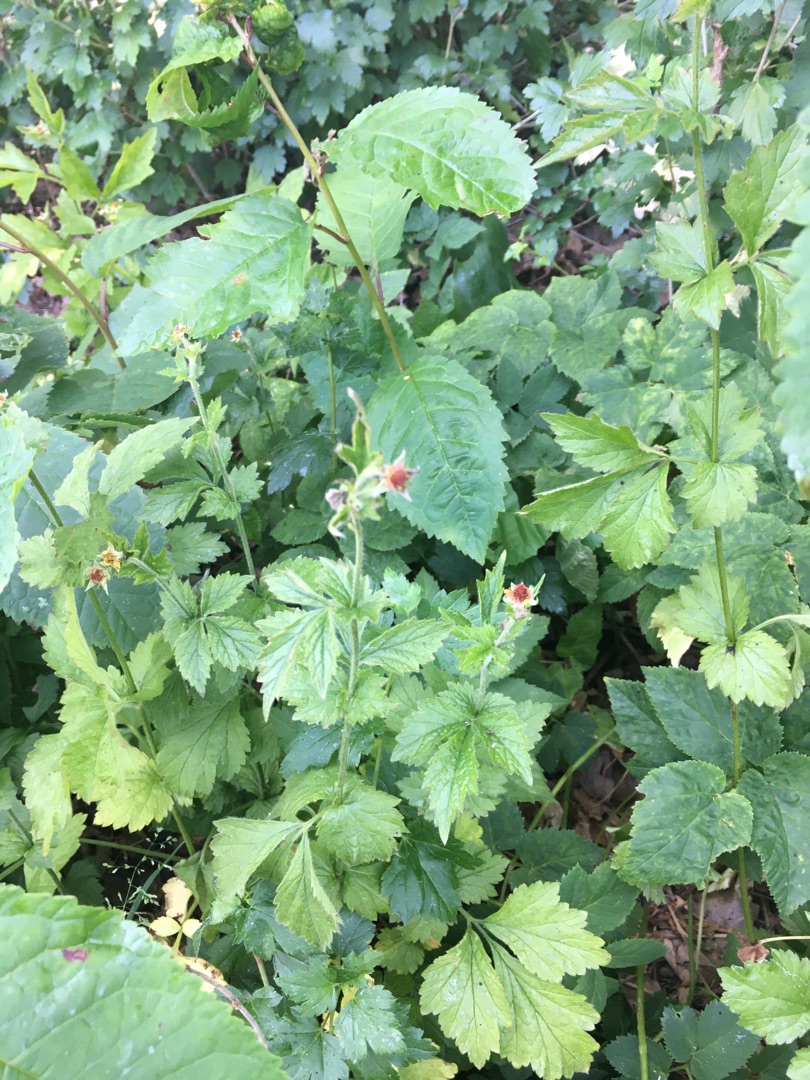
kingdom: Plantae
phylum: Tracheophyta
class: Magnoliopsida
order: Rosales
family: Rosaceae
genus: Geum
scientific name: Geum urbanum
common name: Feber-nellikerod
